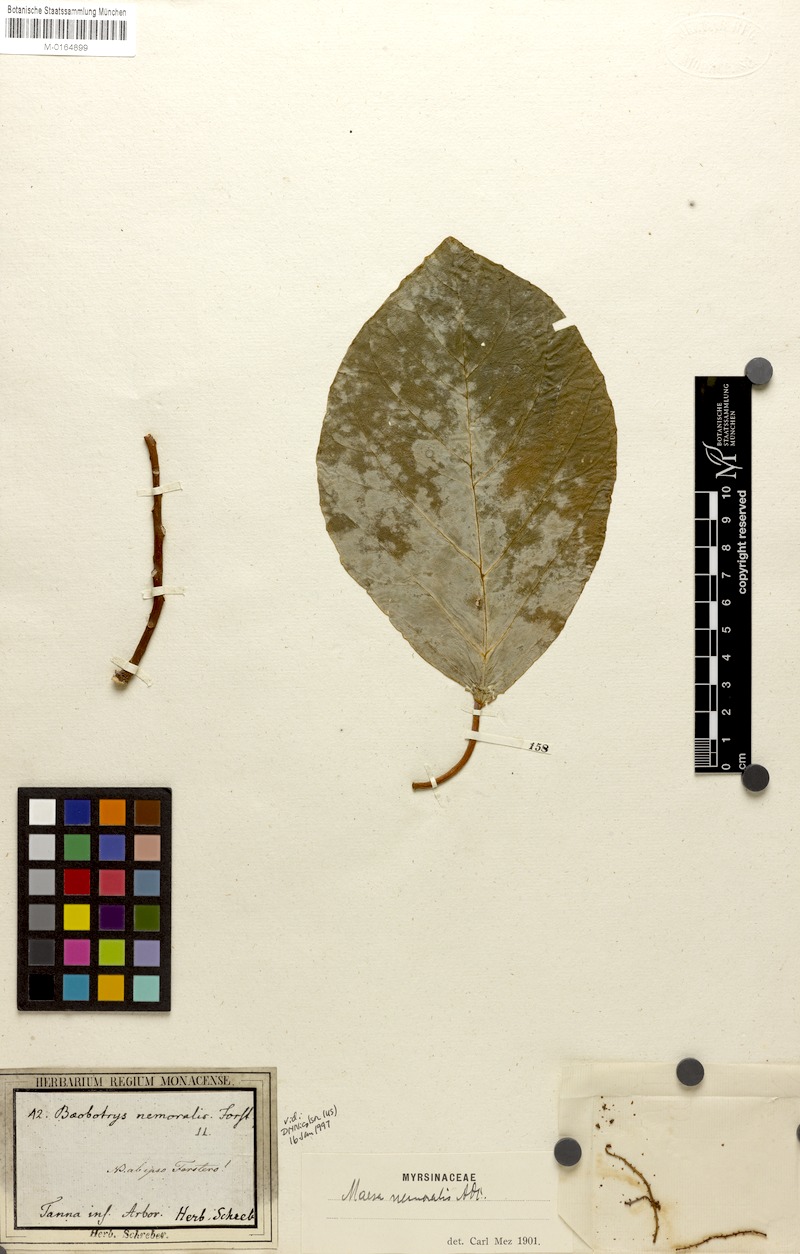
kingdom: Plantae
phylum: Tracheophyta
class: Magnoliopsida
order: Ericales
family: Primulaceae
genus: Maesa
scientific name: Maesa nemoralis
